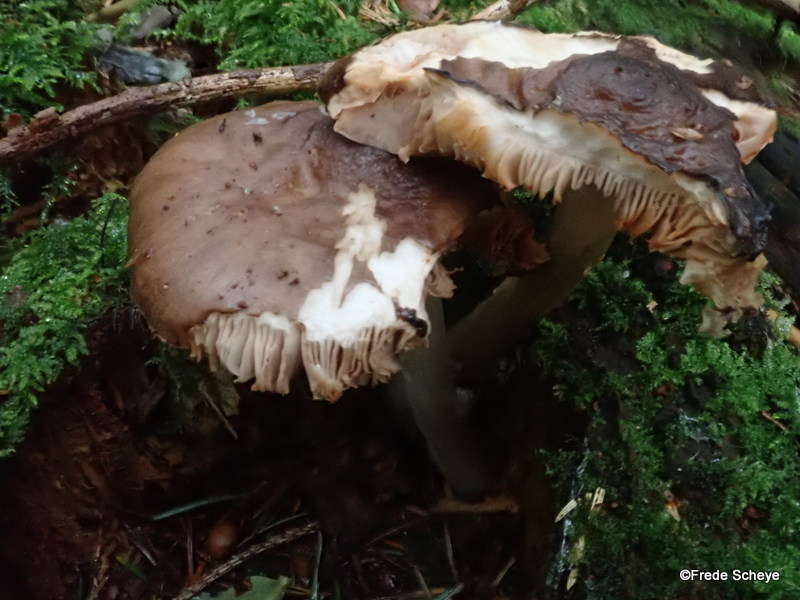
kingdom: Fungi
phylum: Basidiomycota
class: Agaricomycetes
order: Agaricales
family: Pluteaceae
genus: Pluteus
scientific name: Pluteus cervinus
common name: sodfarvet skærmhat
